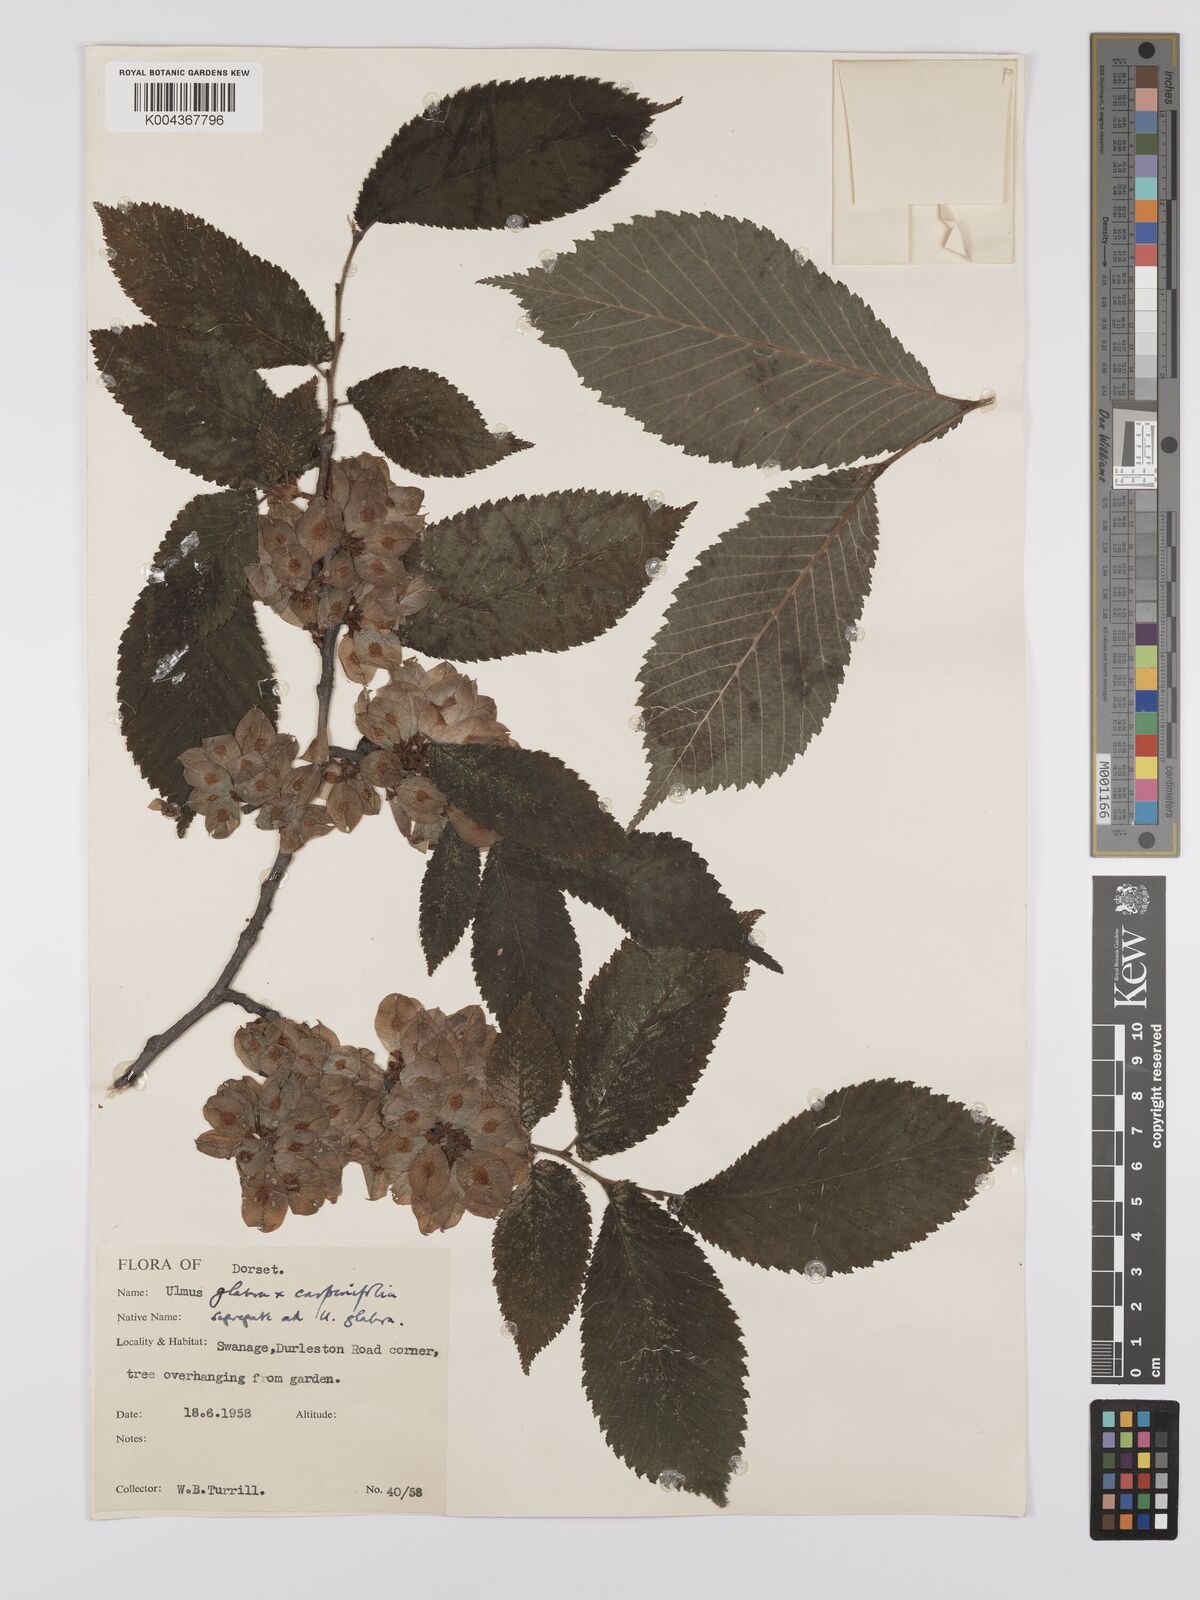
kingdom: Plantae
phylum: Tracheophyta
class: Magnoliopsida
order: Rosales
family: Ulmaceae
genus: Ulmus
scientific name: Ulmus
